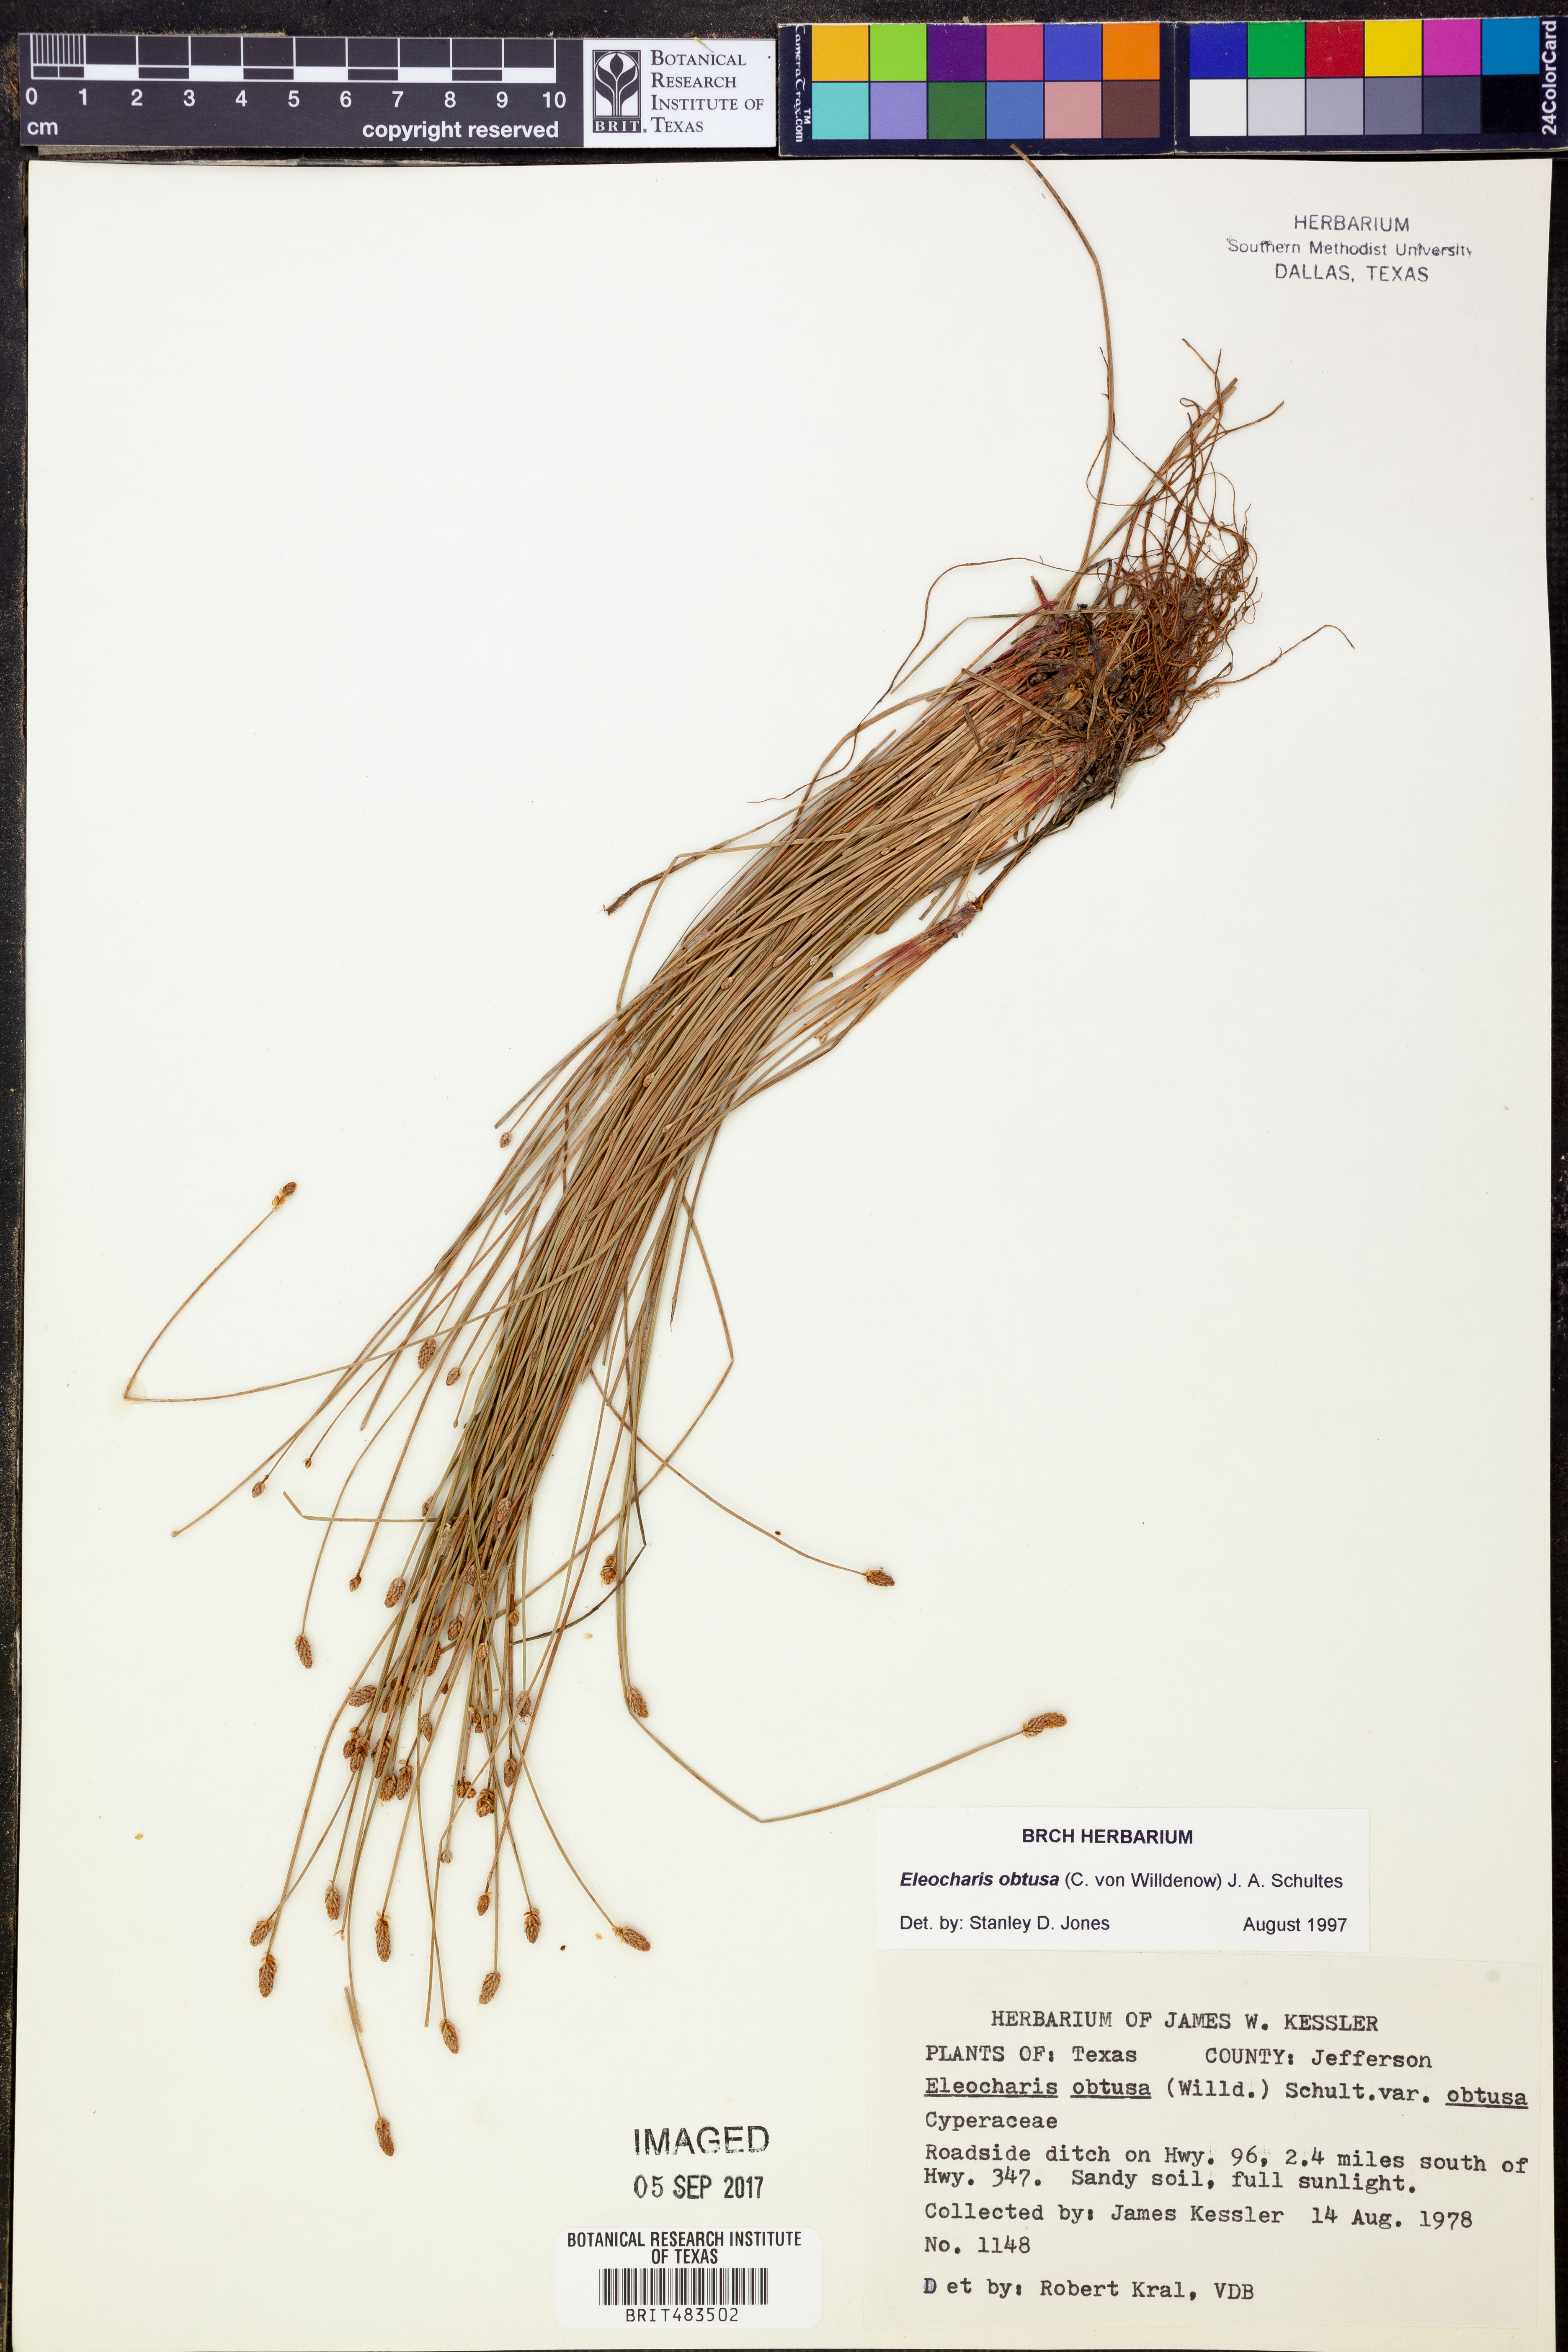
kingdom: Plantae
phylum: Tracheophyta
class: Liliopsida
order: Poales
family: Cyperaceae
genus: Eleocharis
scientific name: Eleocharis obtusa
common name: Blunt spikerush
